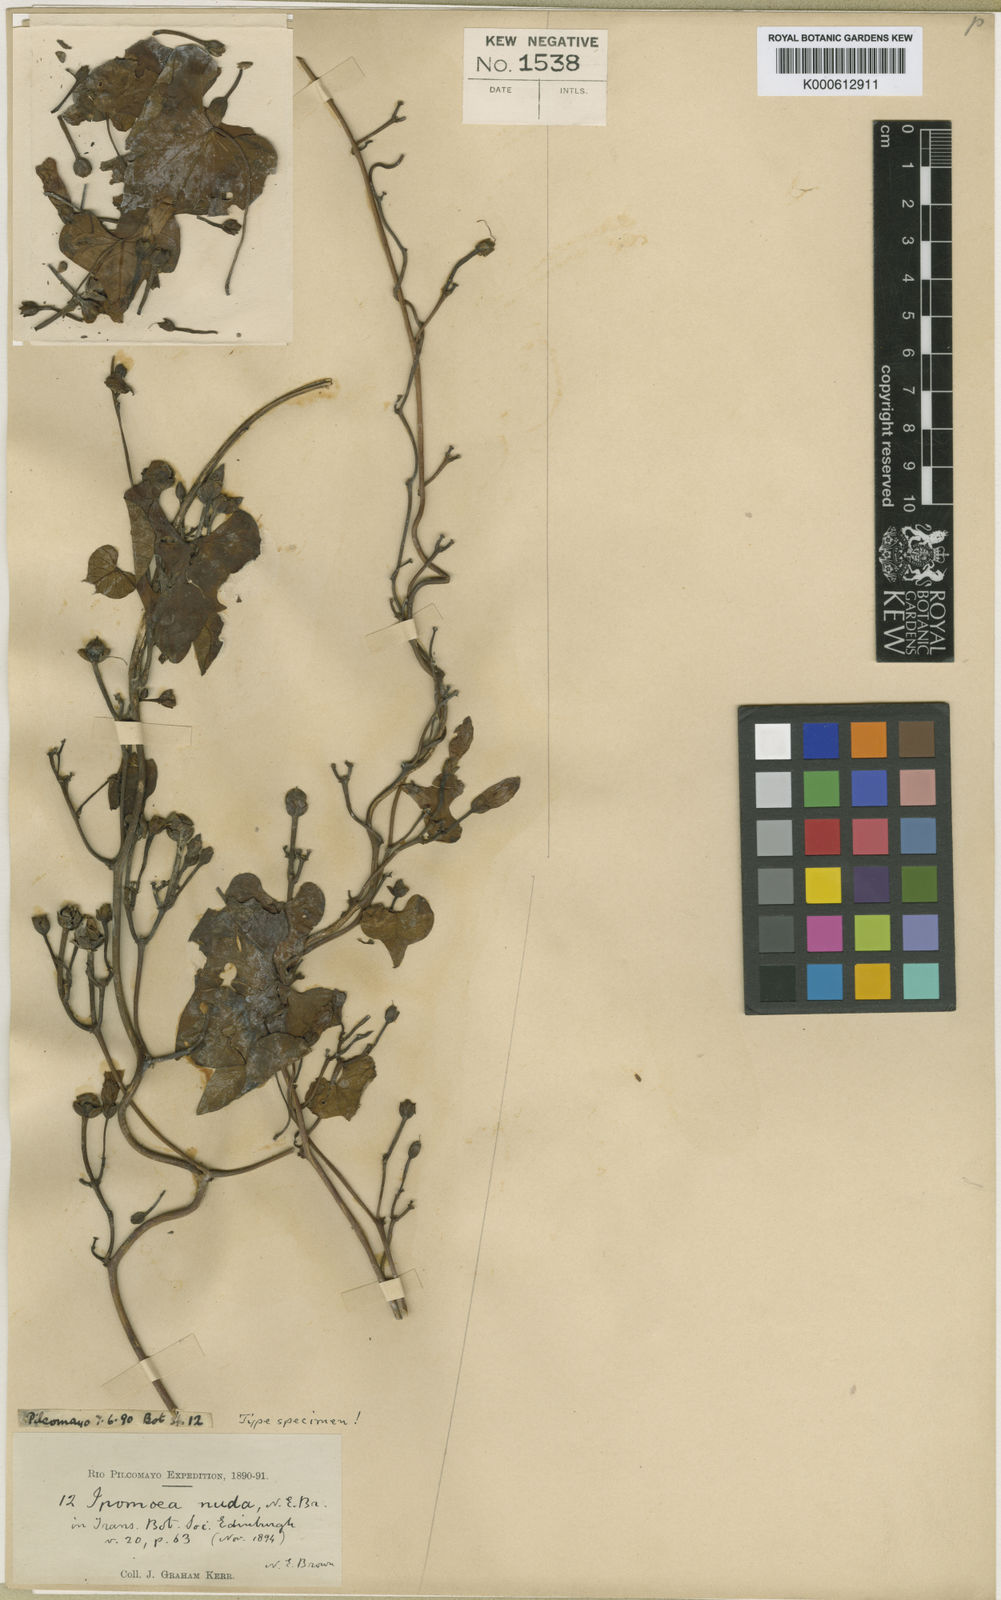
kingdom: Plantae
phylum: Tracheophyta
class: Magnoliopsida
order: Solanales
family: Convolvulaceae
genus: Ipomoea
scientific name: Ipomoea amnicola
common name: Redcenter morning-glory
